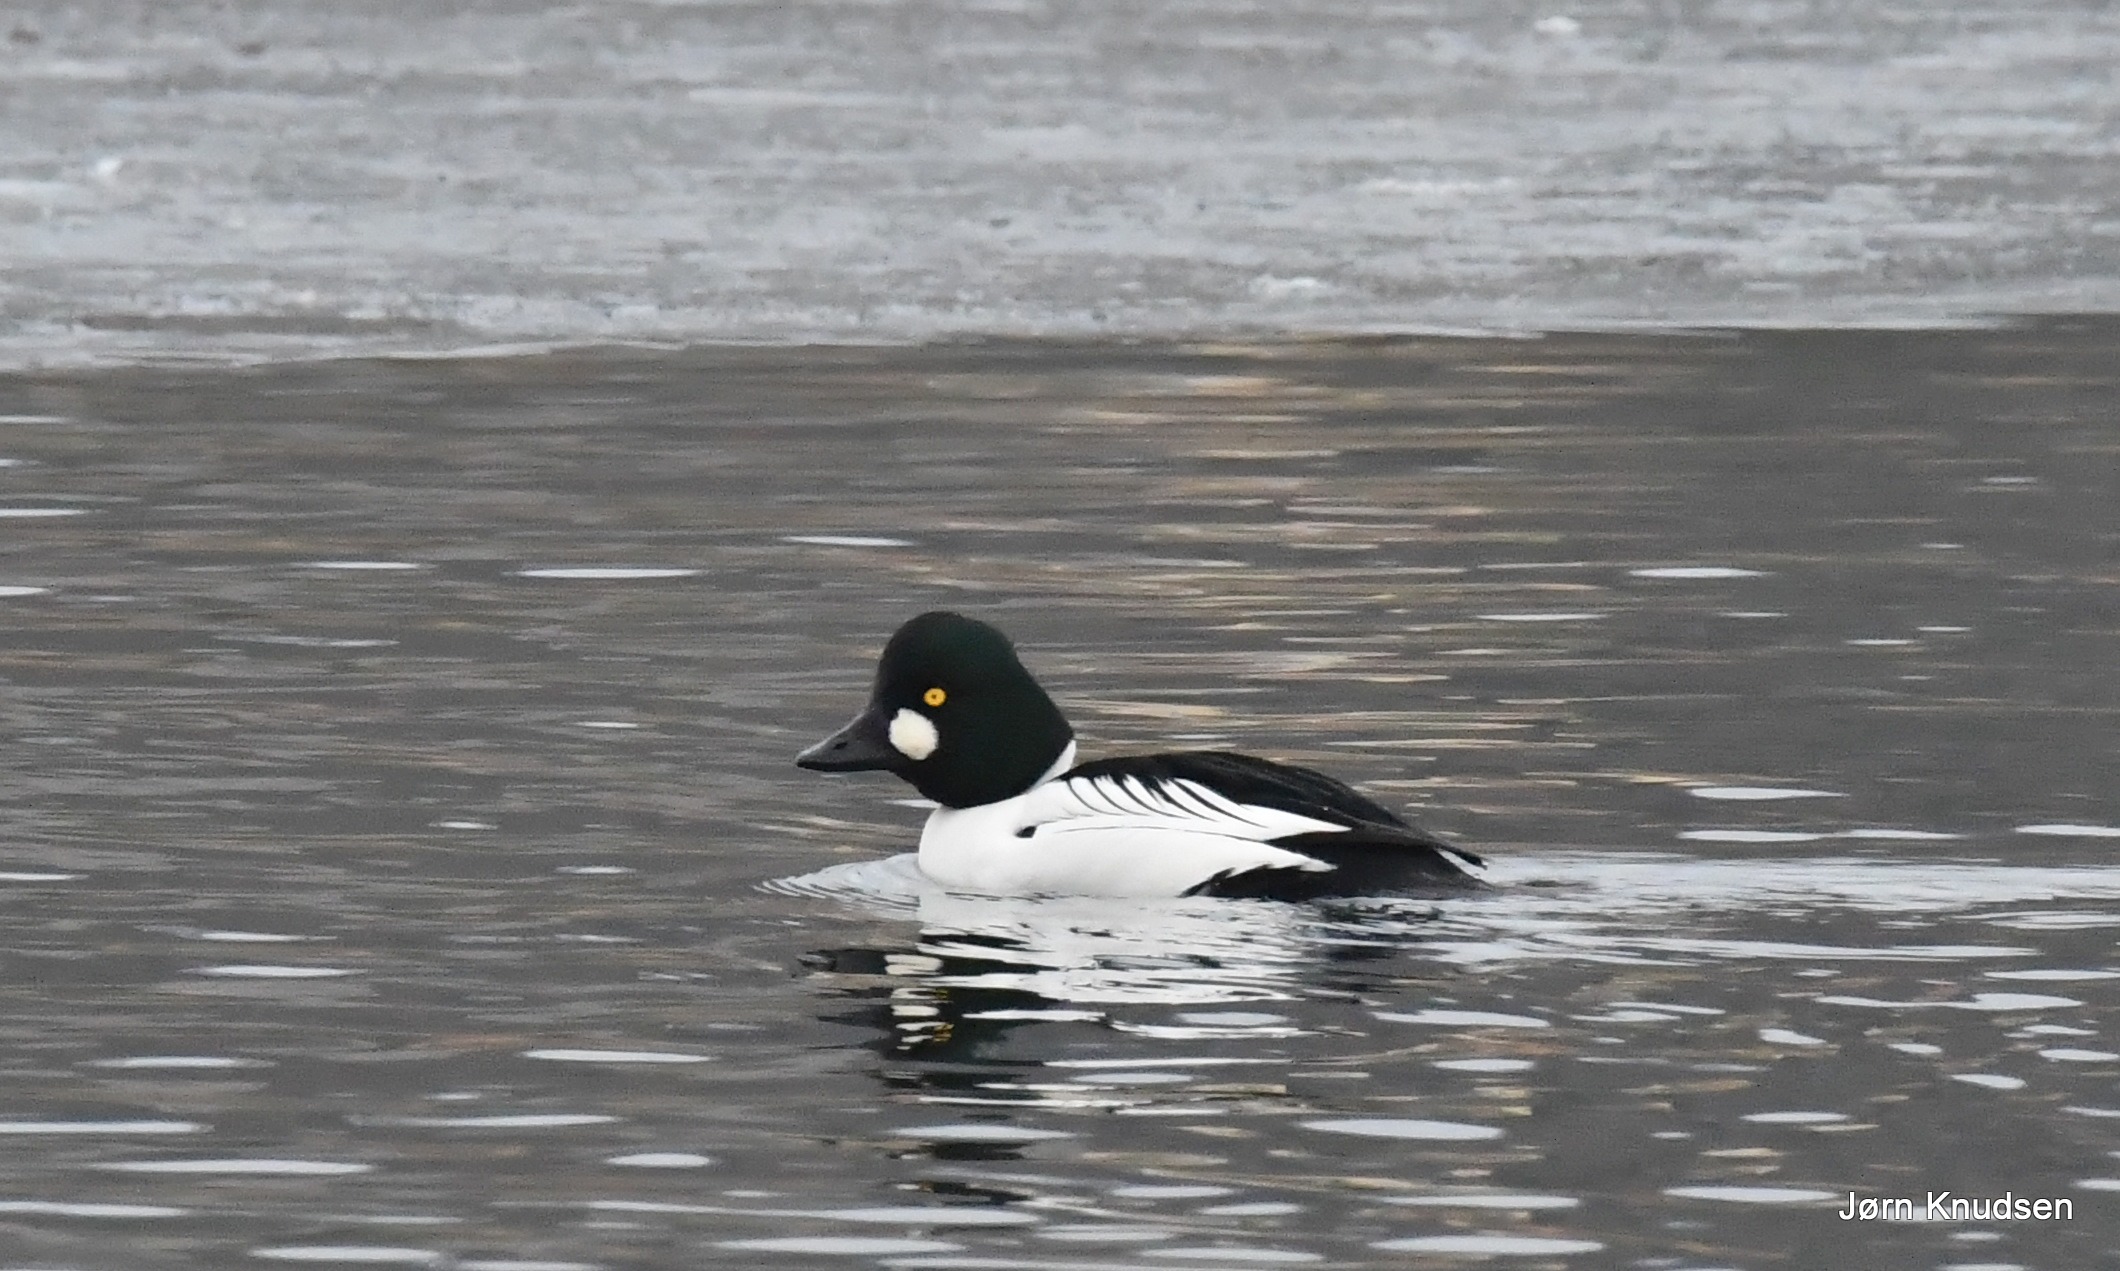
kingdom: Animalia
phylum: Chordata
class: Aves
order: Anseriformes
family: Anatidae
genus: Bucephala
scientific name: Bucephala clangula
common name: Hvinand
